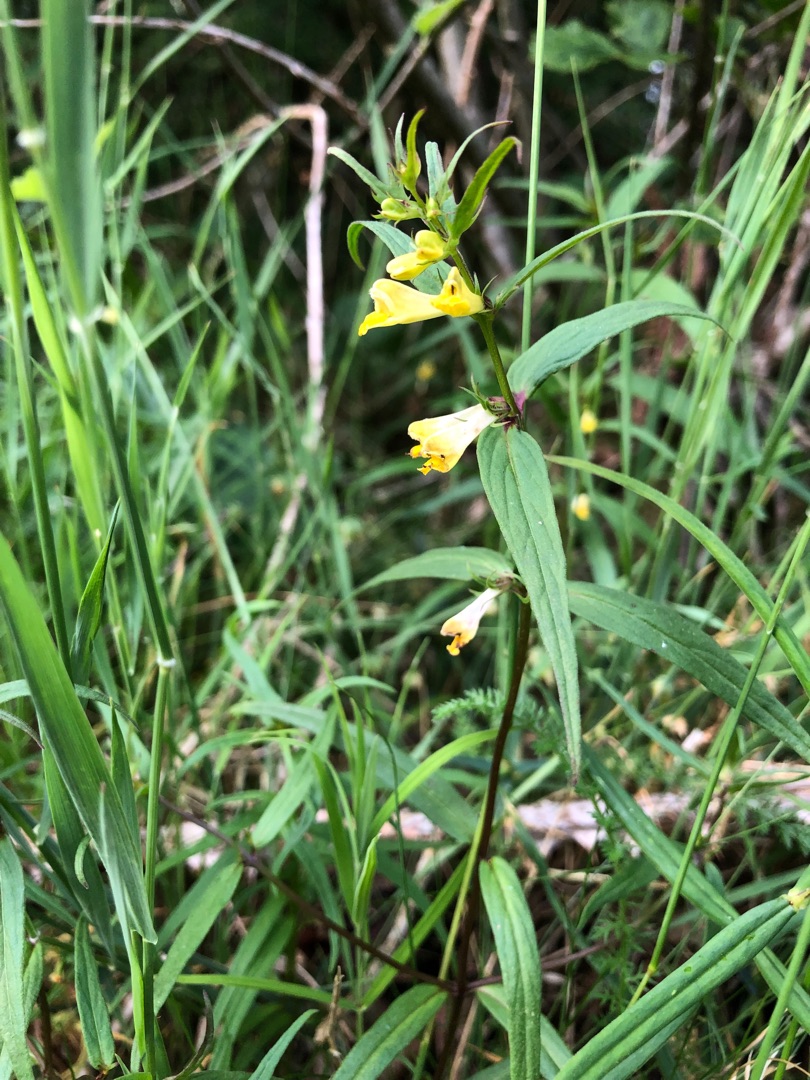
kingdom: Plantae
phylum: Tracheophyta
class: Magnoliopsida
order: Lamiales
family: Orobanchaceae
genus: Melampyrum
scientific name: Melampyrum pratense
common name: Almindelig kohvede
